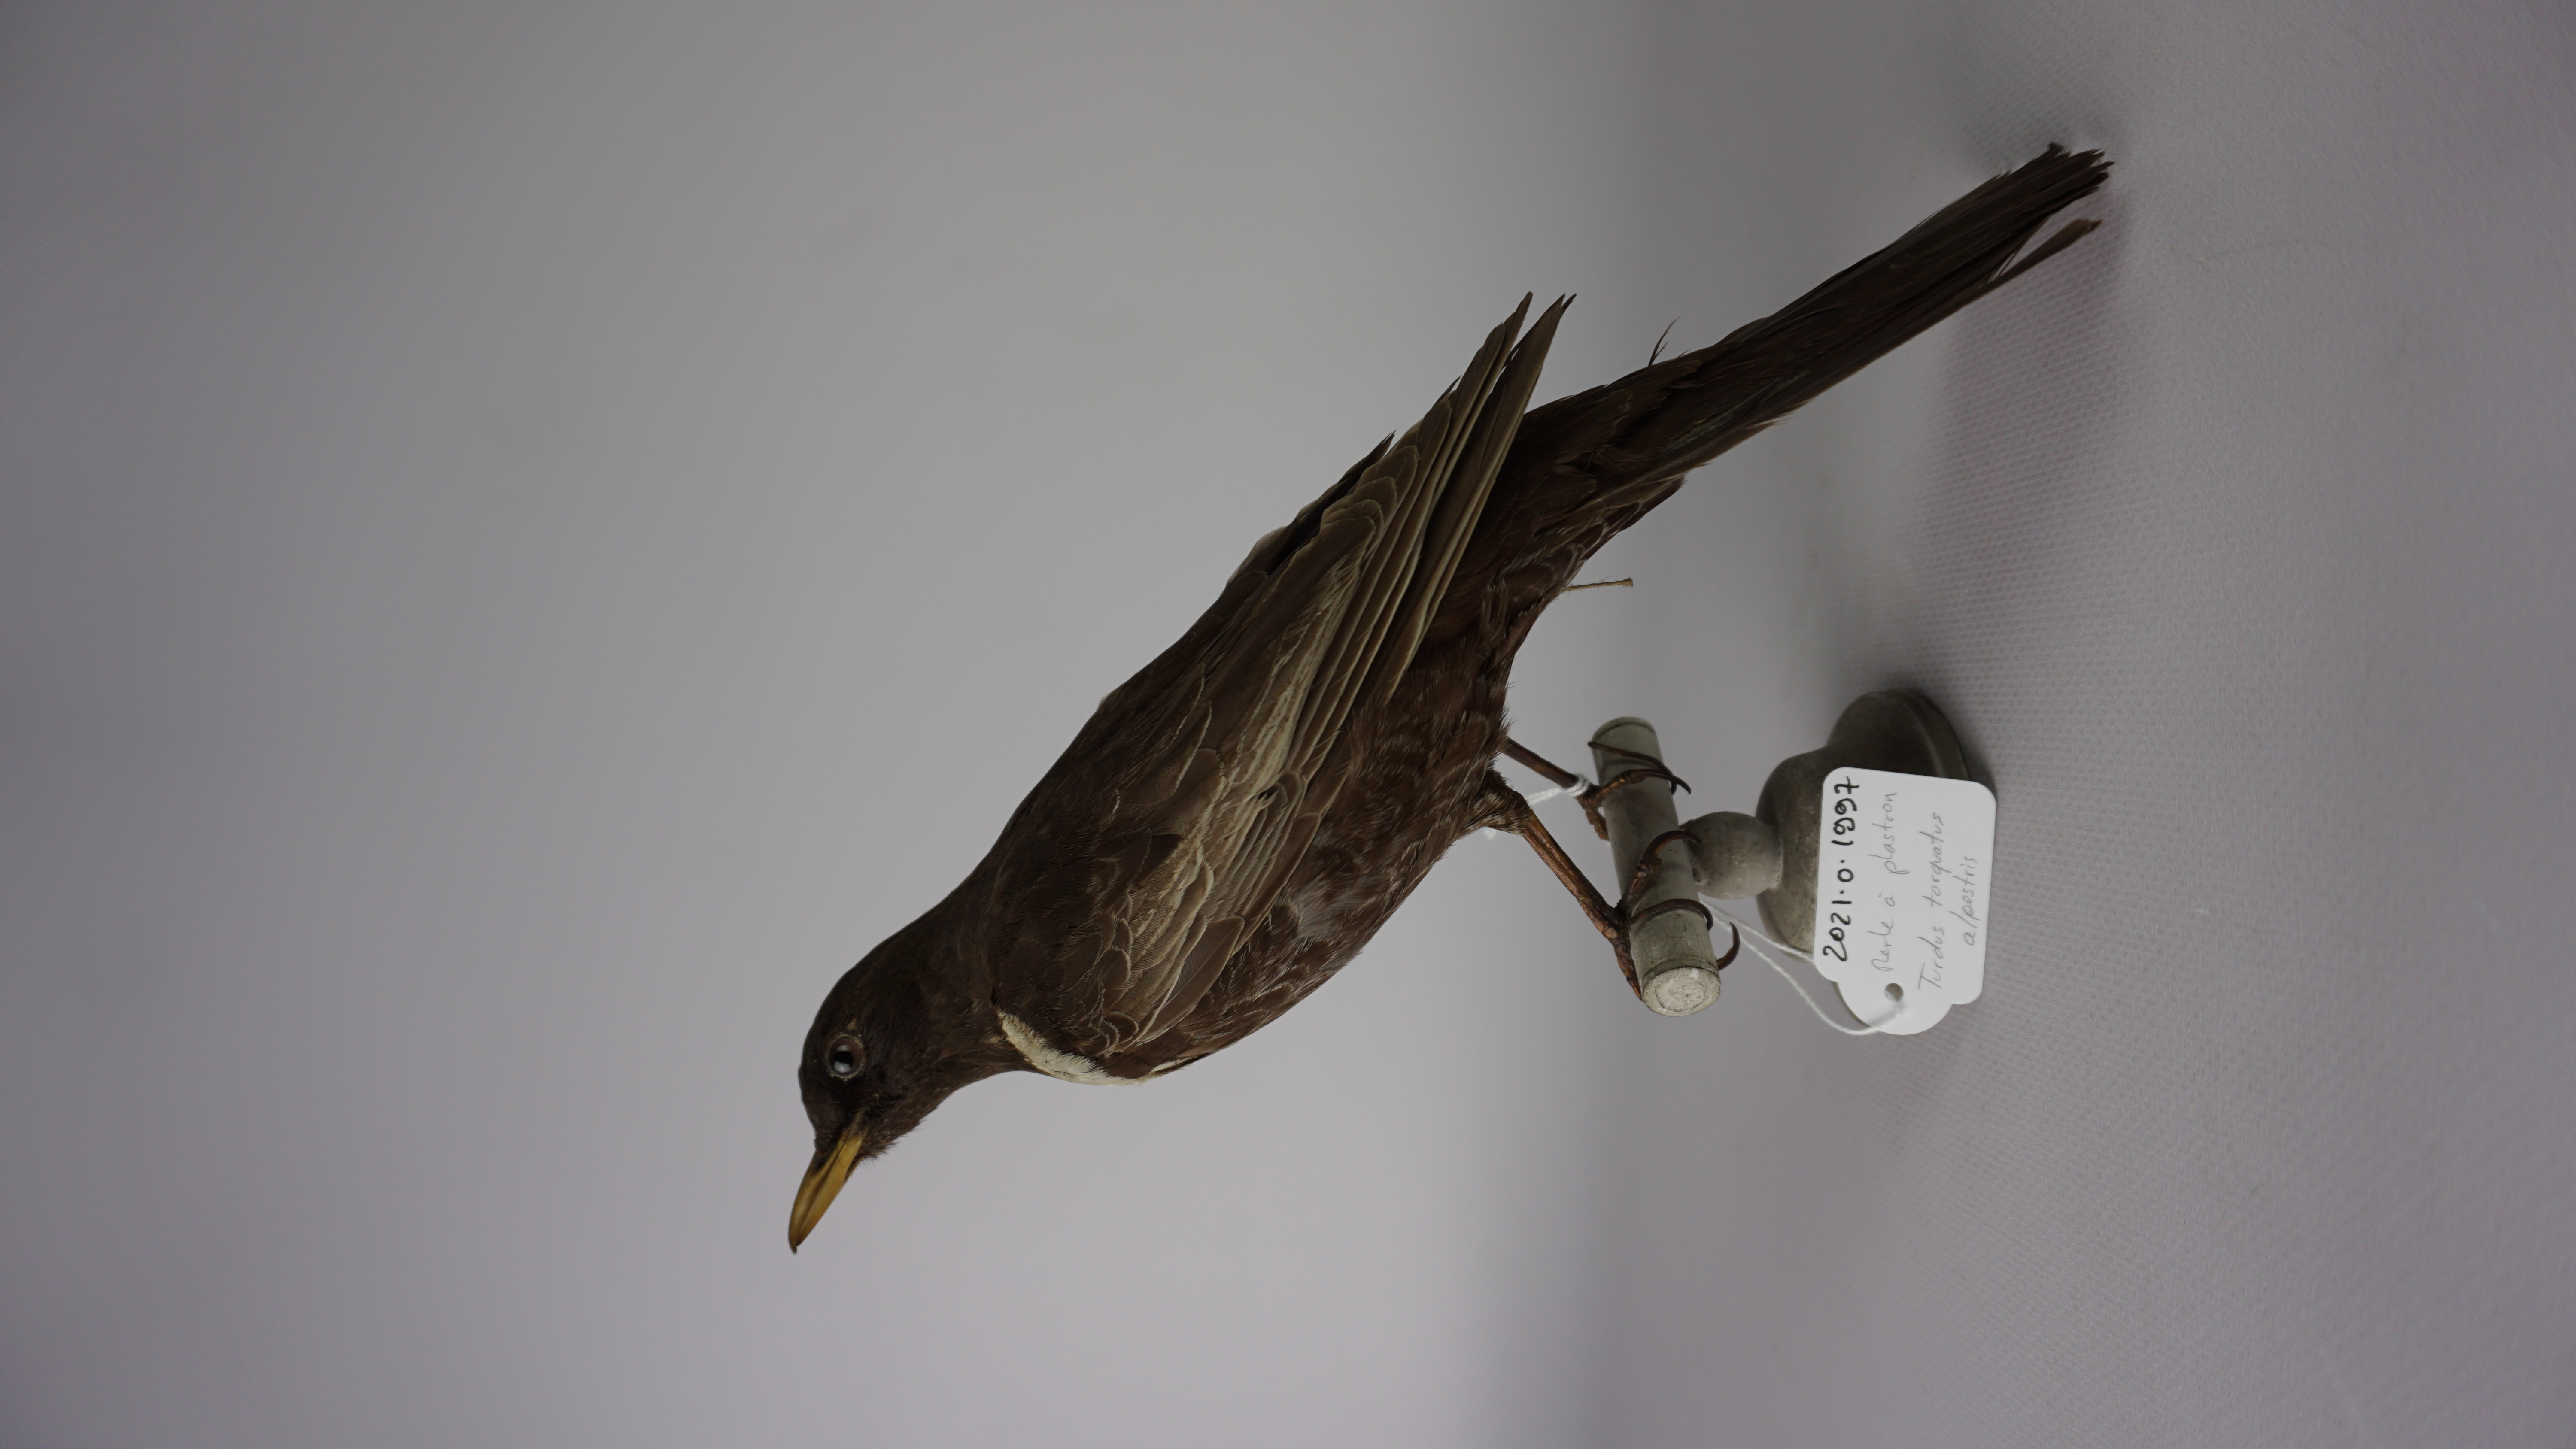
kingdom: Animalia
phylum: Chordata
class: Aves
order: Passeriformes
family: Turdidae
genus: Turdus
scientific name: Turdus torquatus
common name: Ring ouzel
